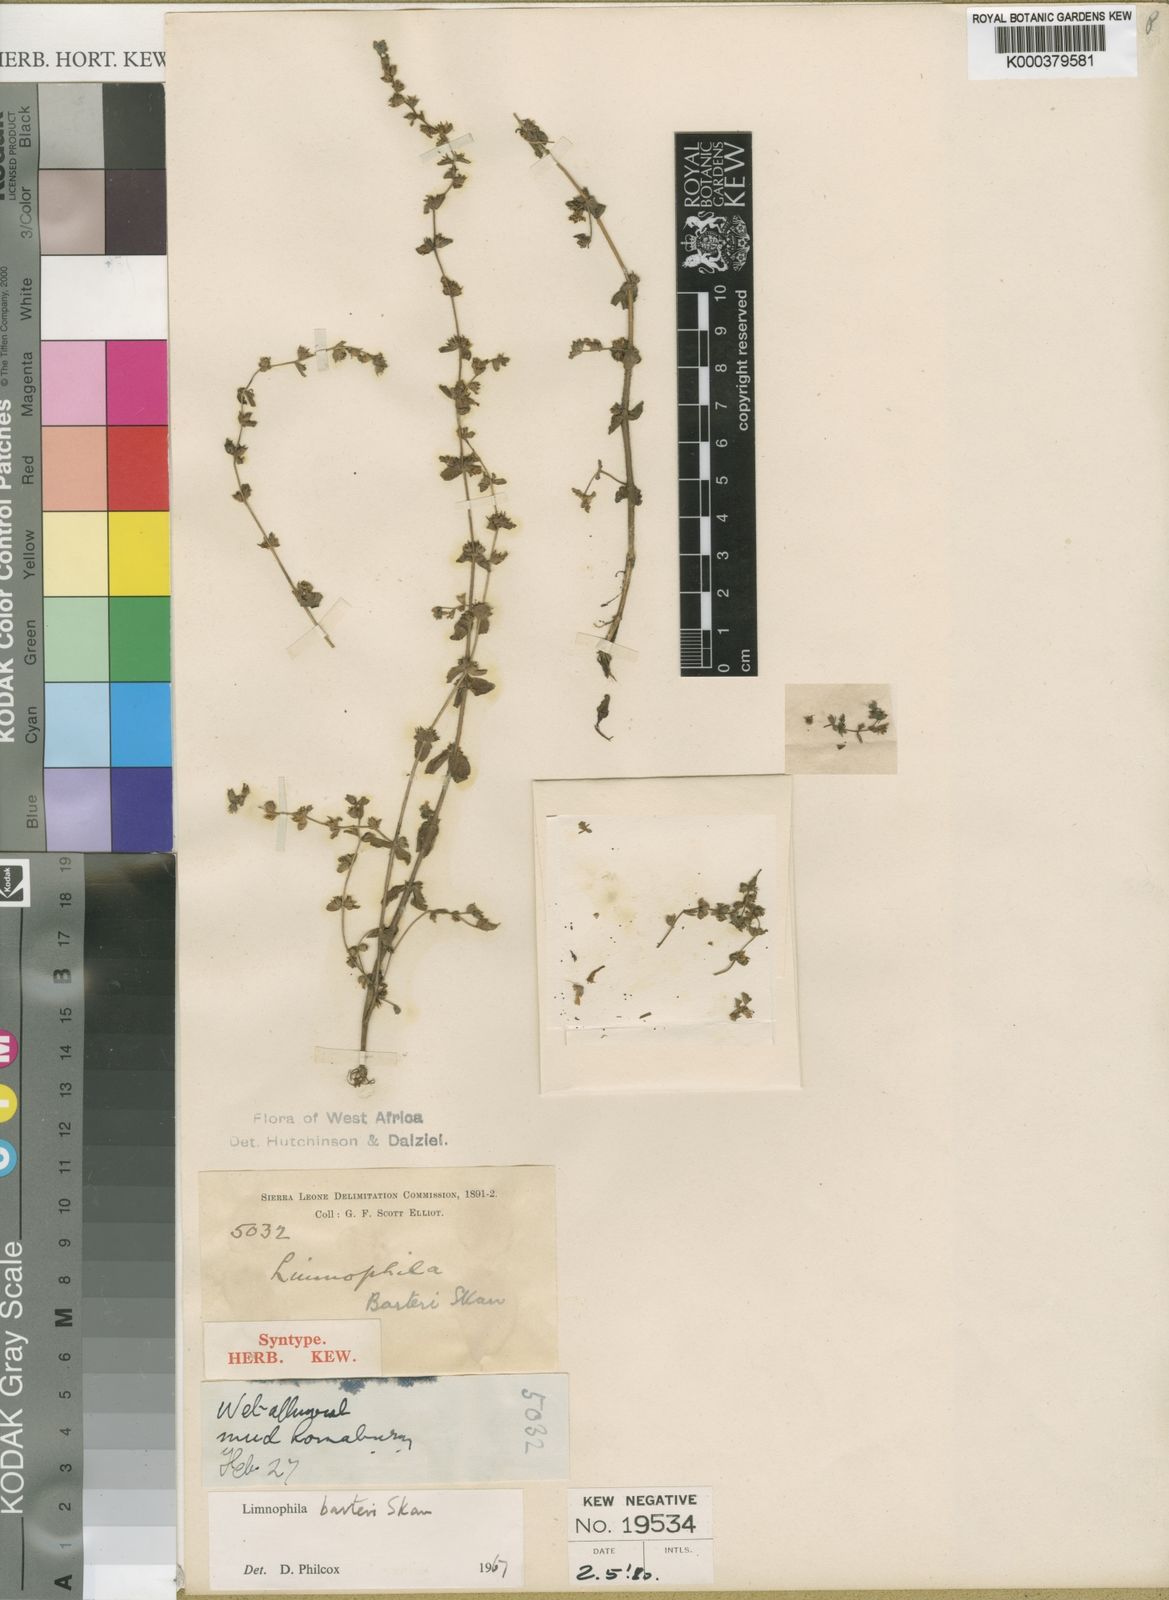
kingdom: Plantae
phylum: Tracheophyta
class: Magnoliopsida
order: Lamiales
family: Plantaginaceae
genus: Limnophila
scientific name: Limnophila barteri
